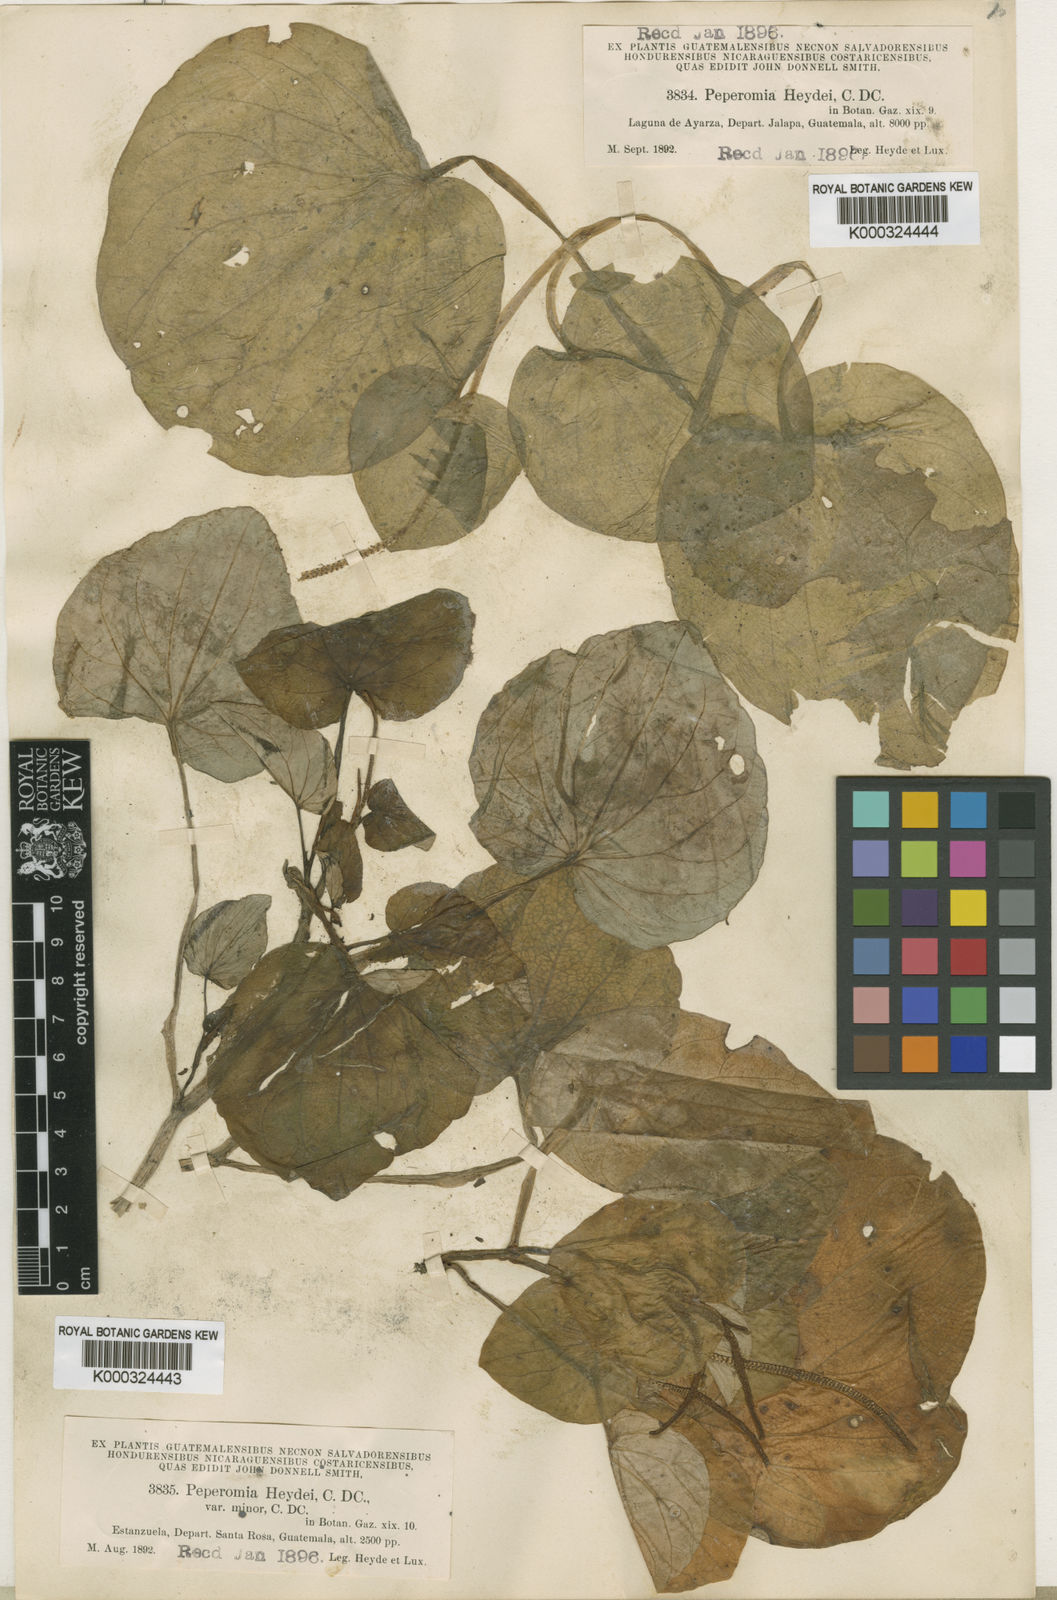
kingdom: Plantae
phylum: Tracheophyta
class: Magnoliopsida
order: Piperales
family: Piperaceae
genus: Peperomia
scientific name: Peperomia asarifolia
